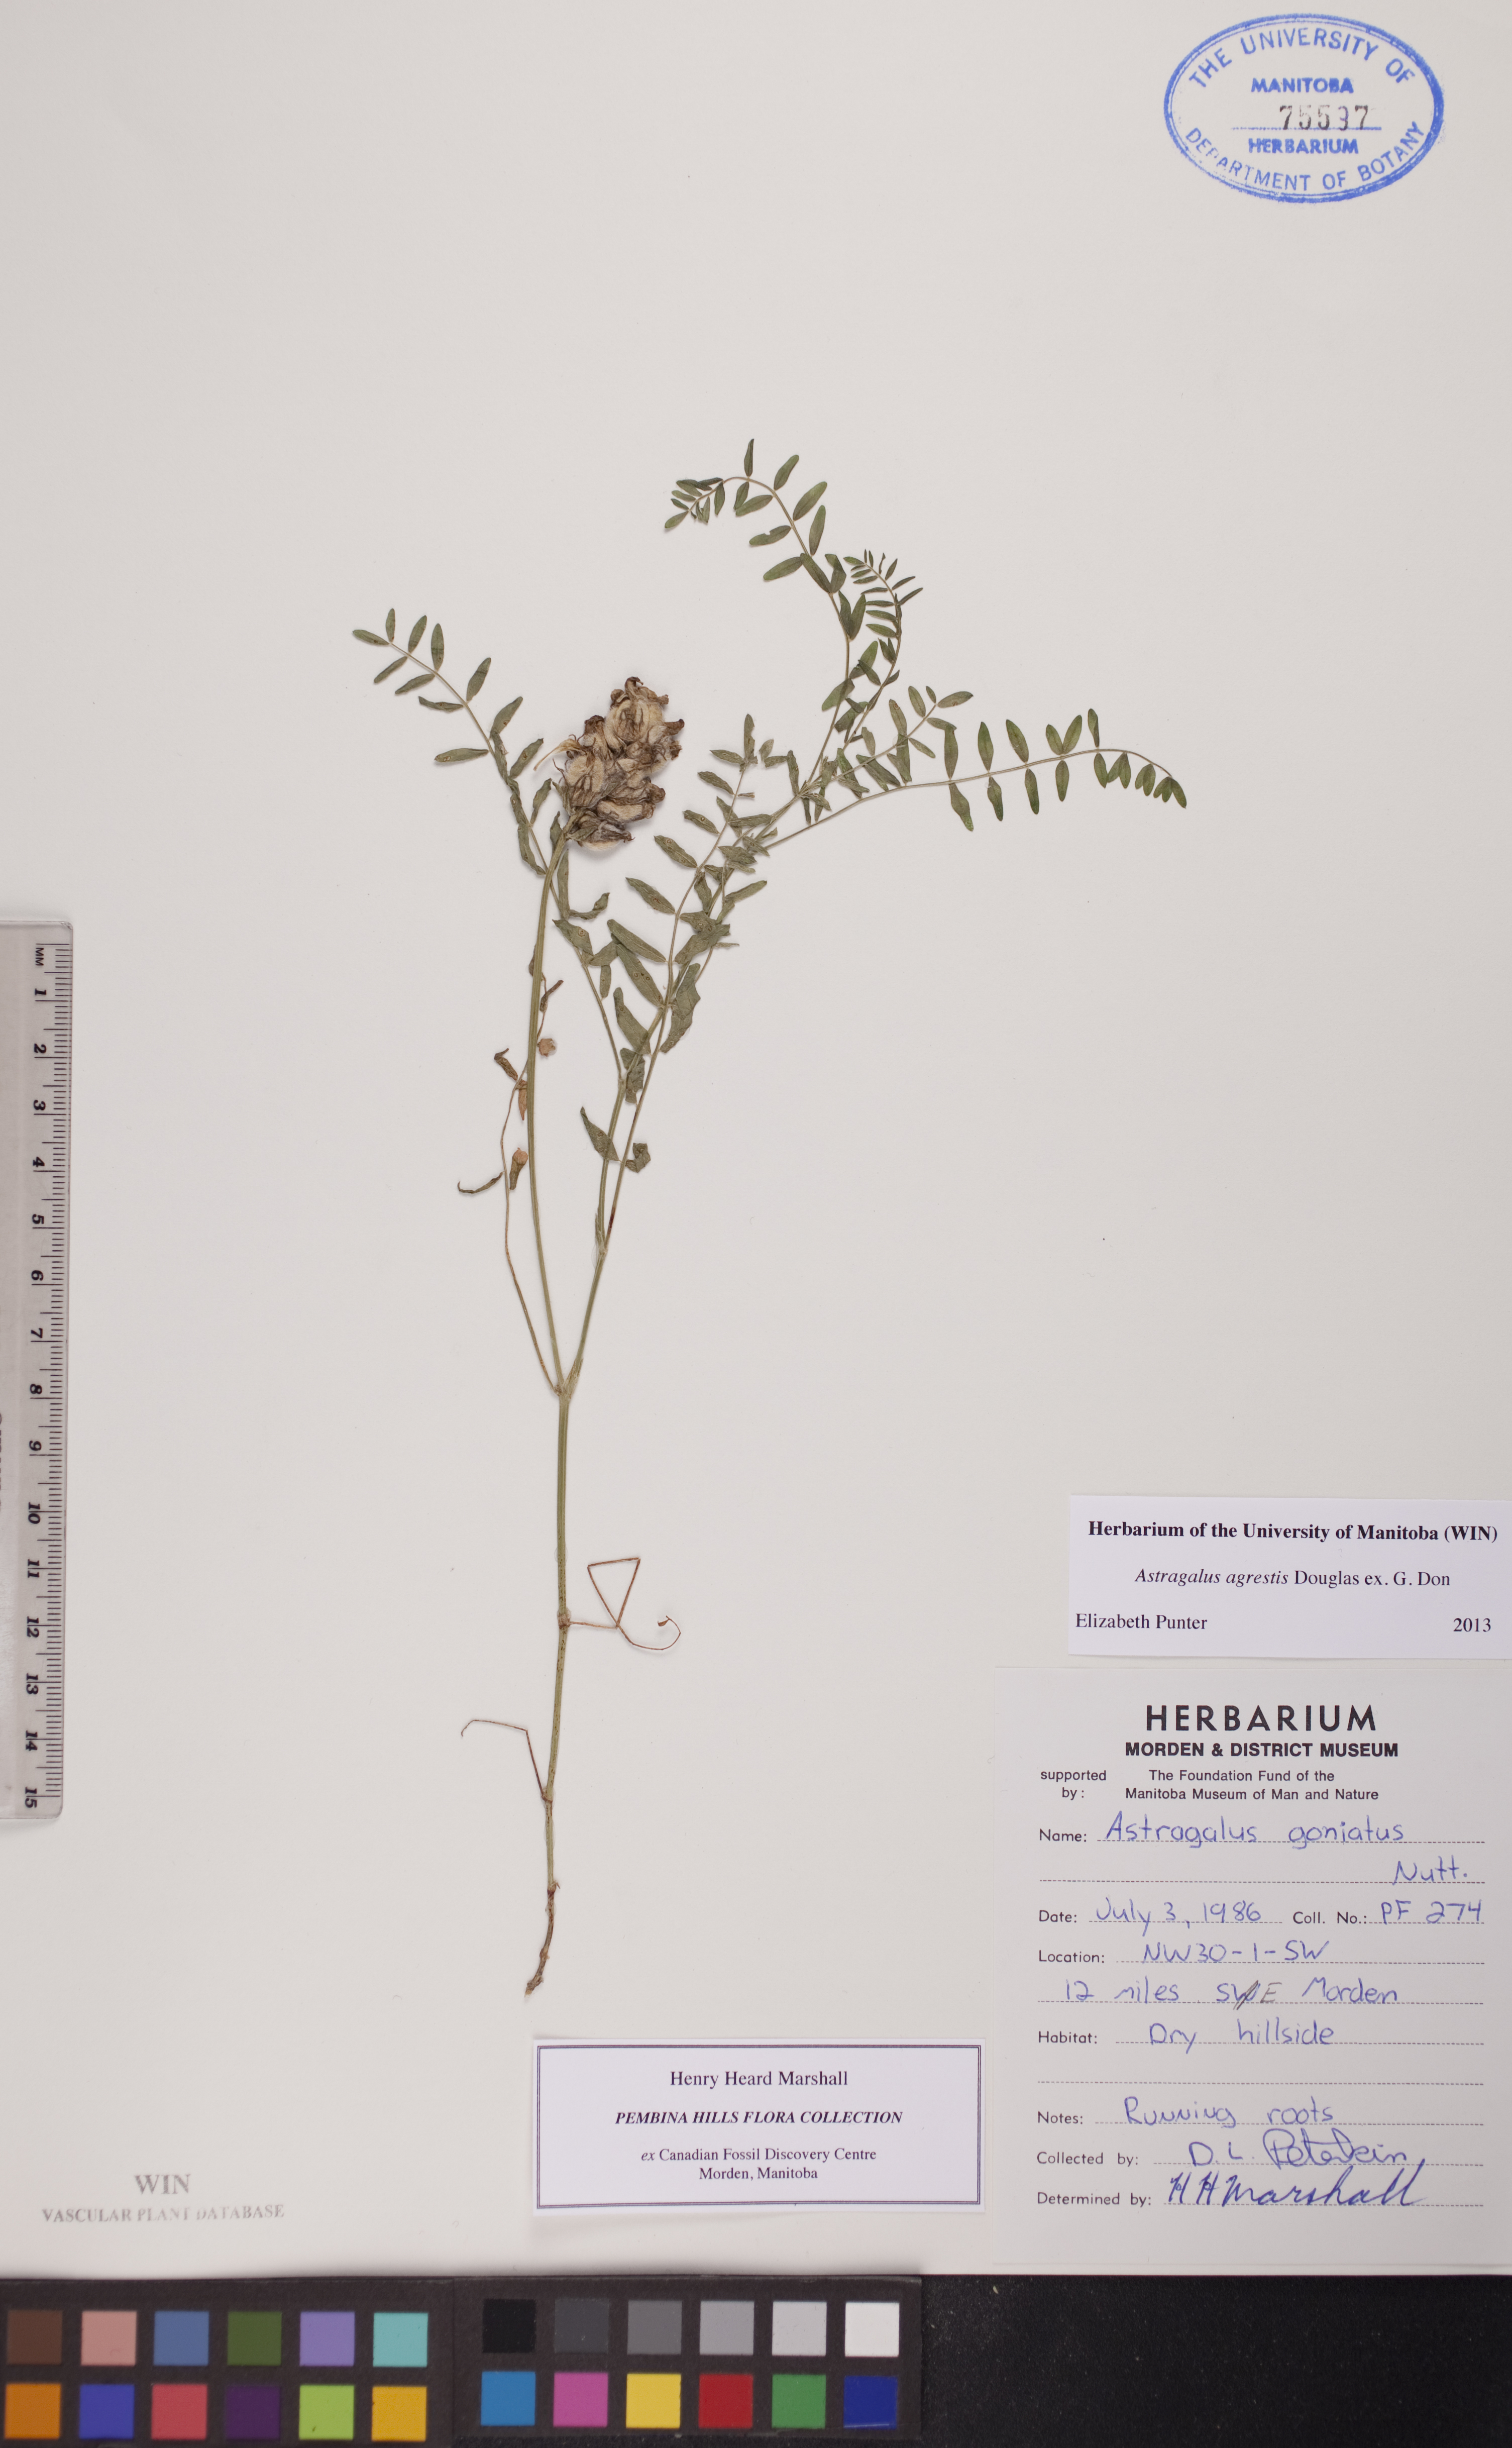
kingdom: Plantae
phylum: Tracheophyta
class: Magnoliopsida
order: Fabales
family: Fabaceae
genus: Astragalus
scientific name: Astragalus agrestis
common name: Field milk-vetch
